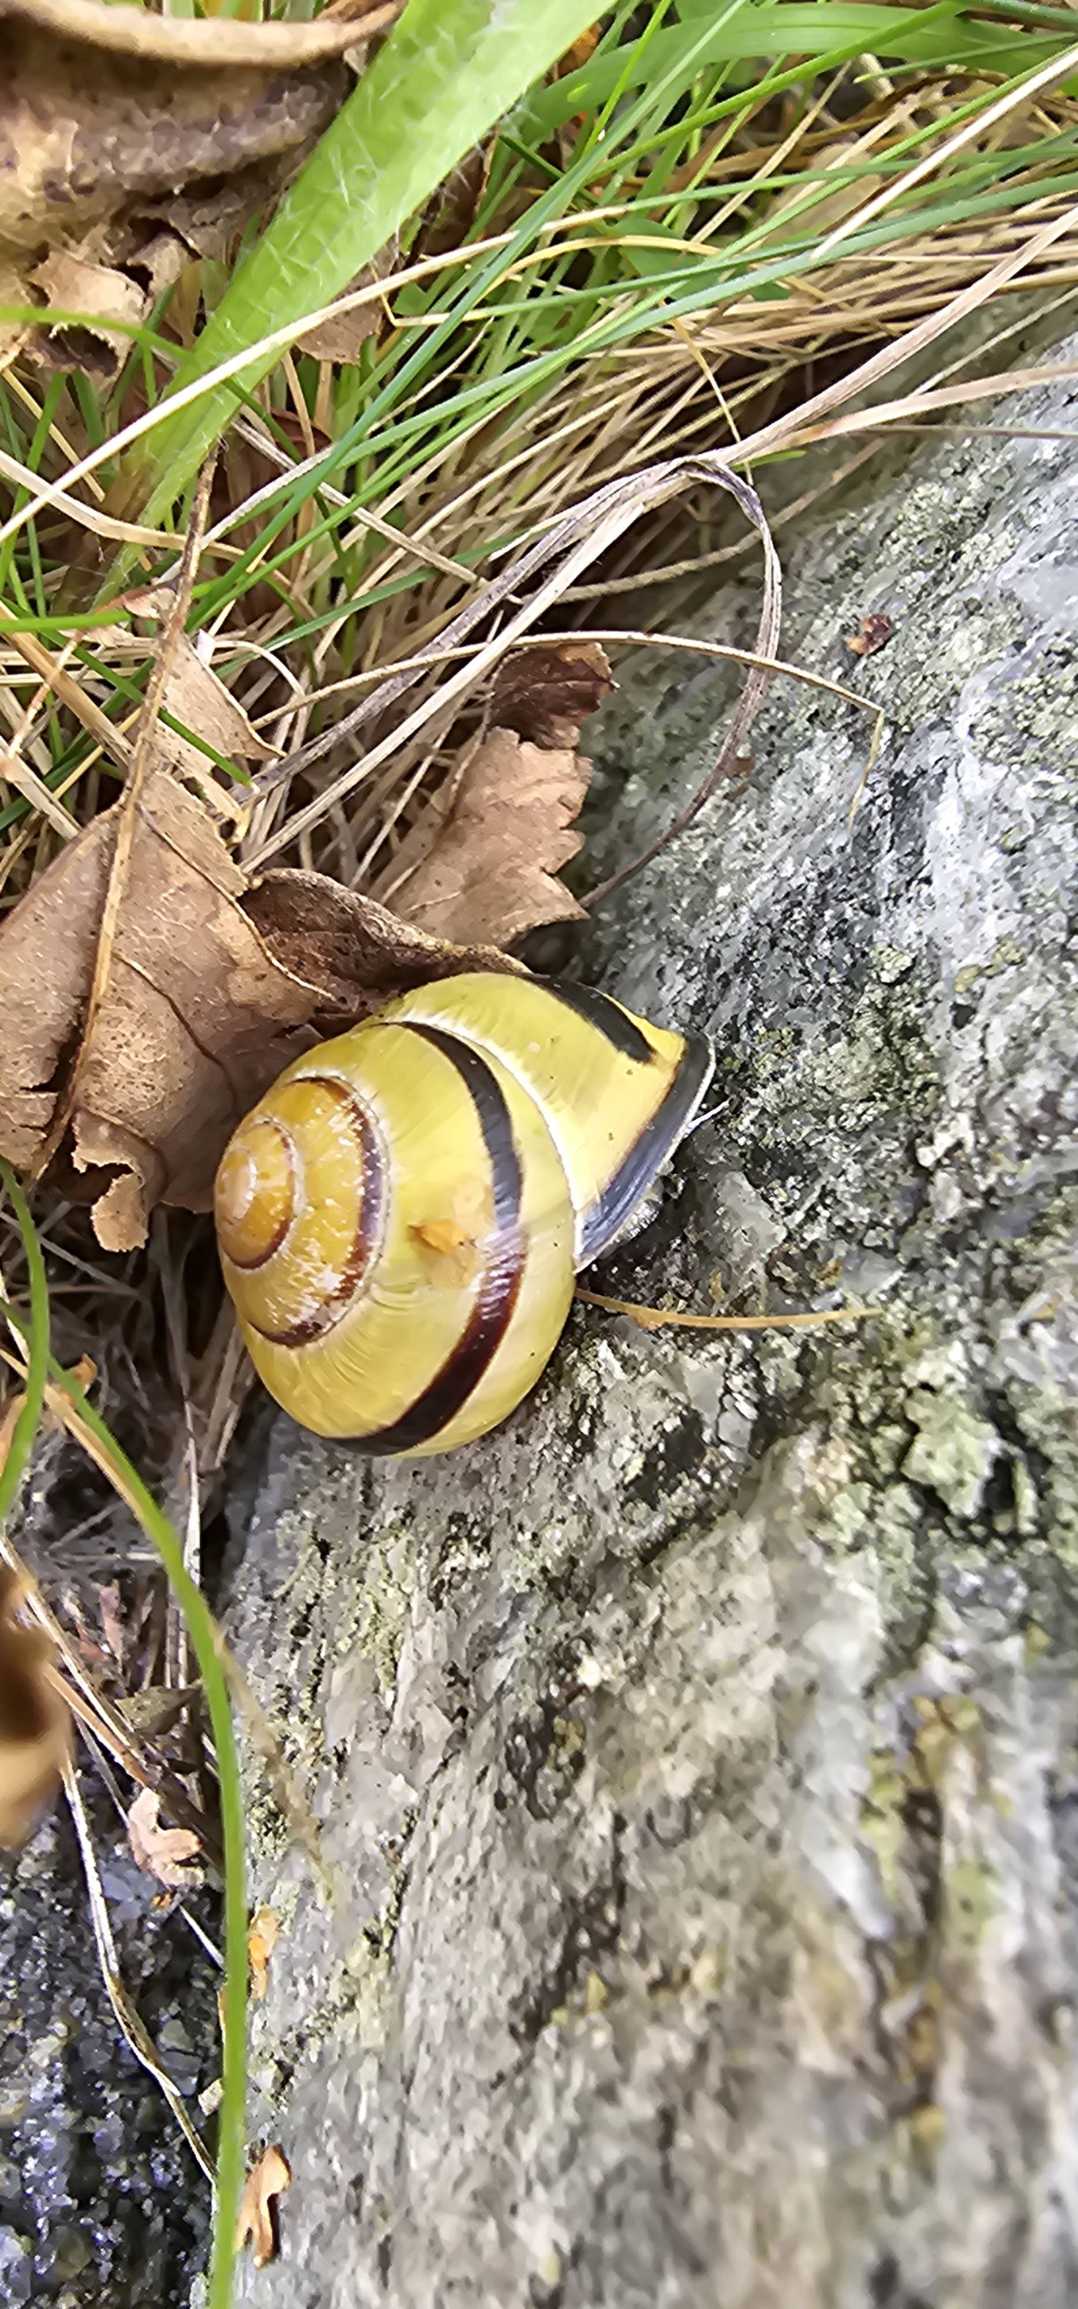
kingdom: Animalia
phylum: Mollusca
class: Gastropoda
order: Stylommatophora
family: Helicidae
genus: Cepaea
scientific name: Cepaea nemoralis
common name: Lundsnegl
